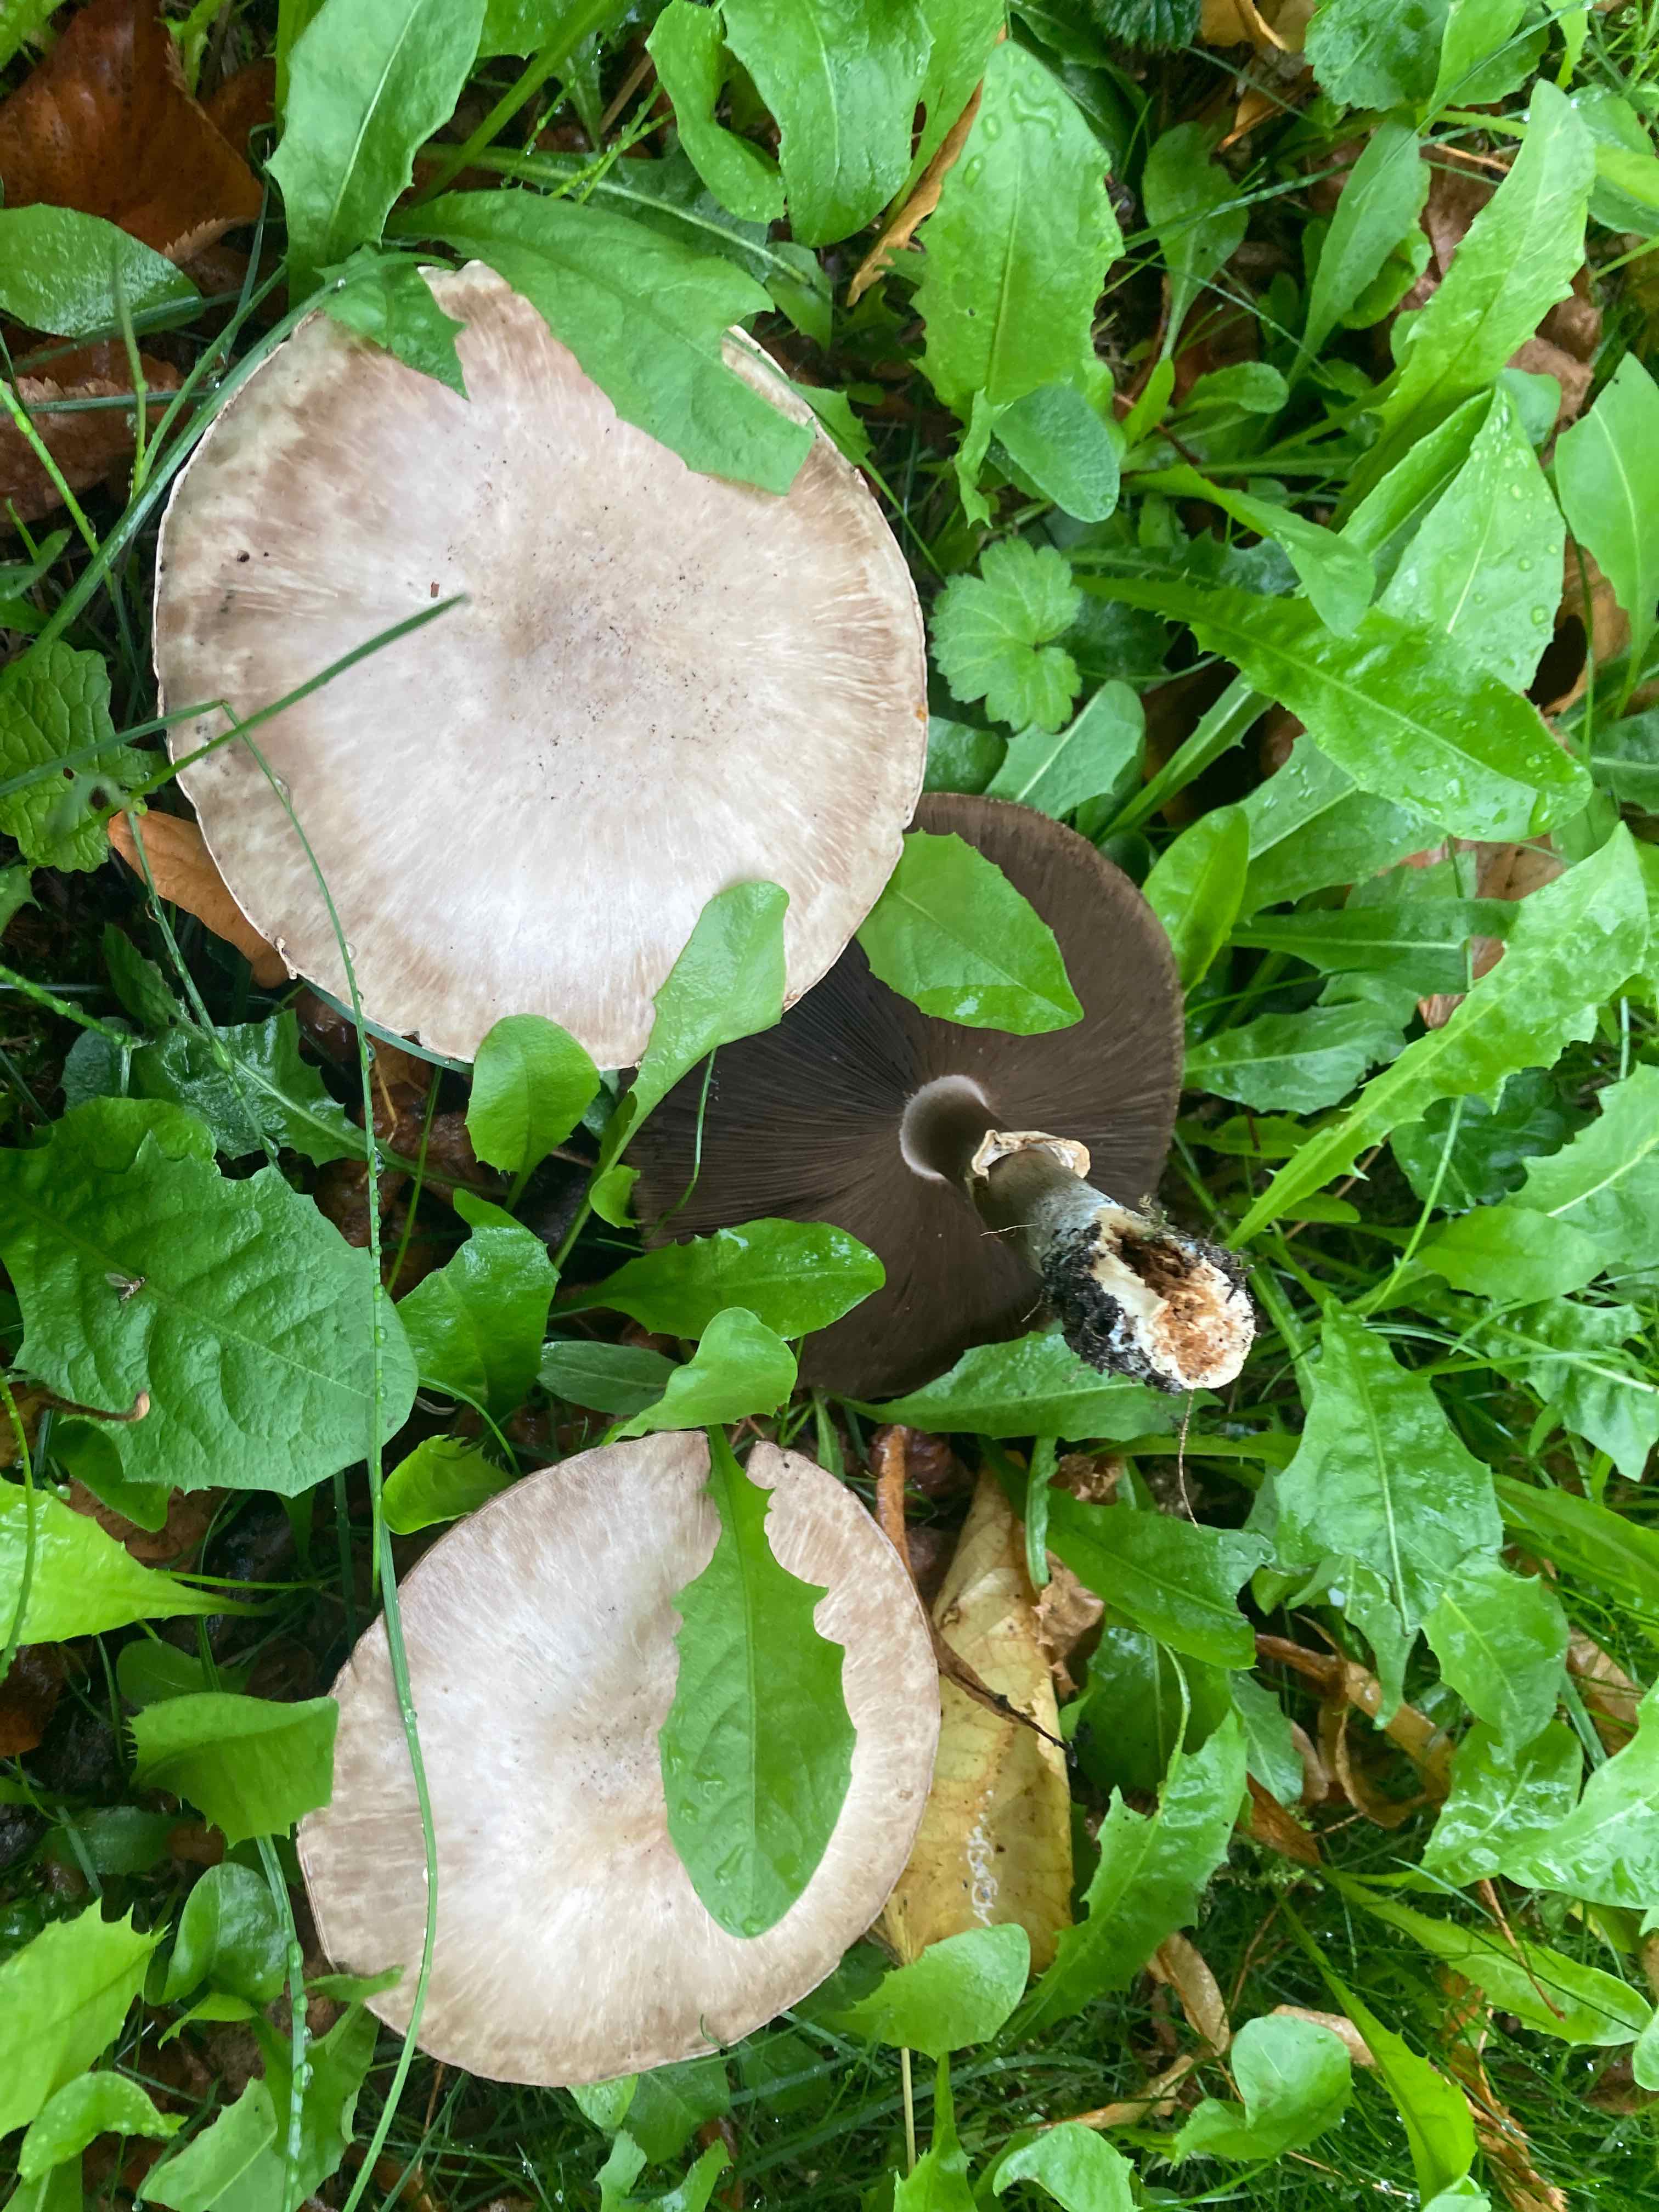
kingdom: Fungi
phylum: Basidiomycota
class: Agaricomycetes
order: Agaricales
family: Agaricaceae
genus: Agaricus
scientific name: Agaricus xanthodermus
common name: karbol-champignon
